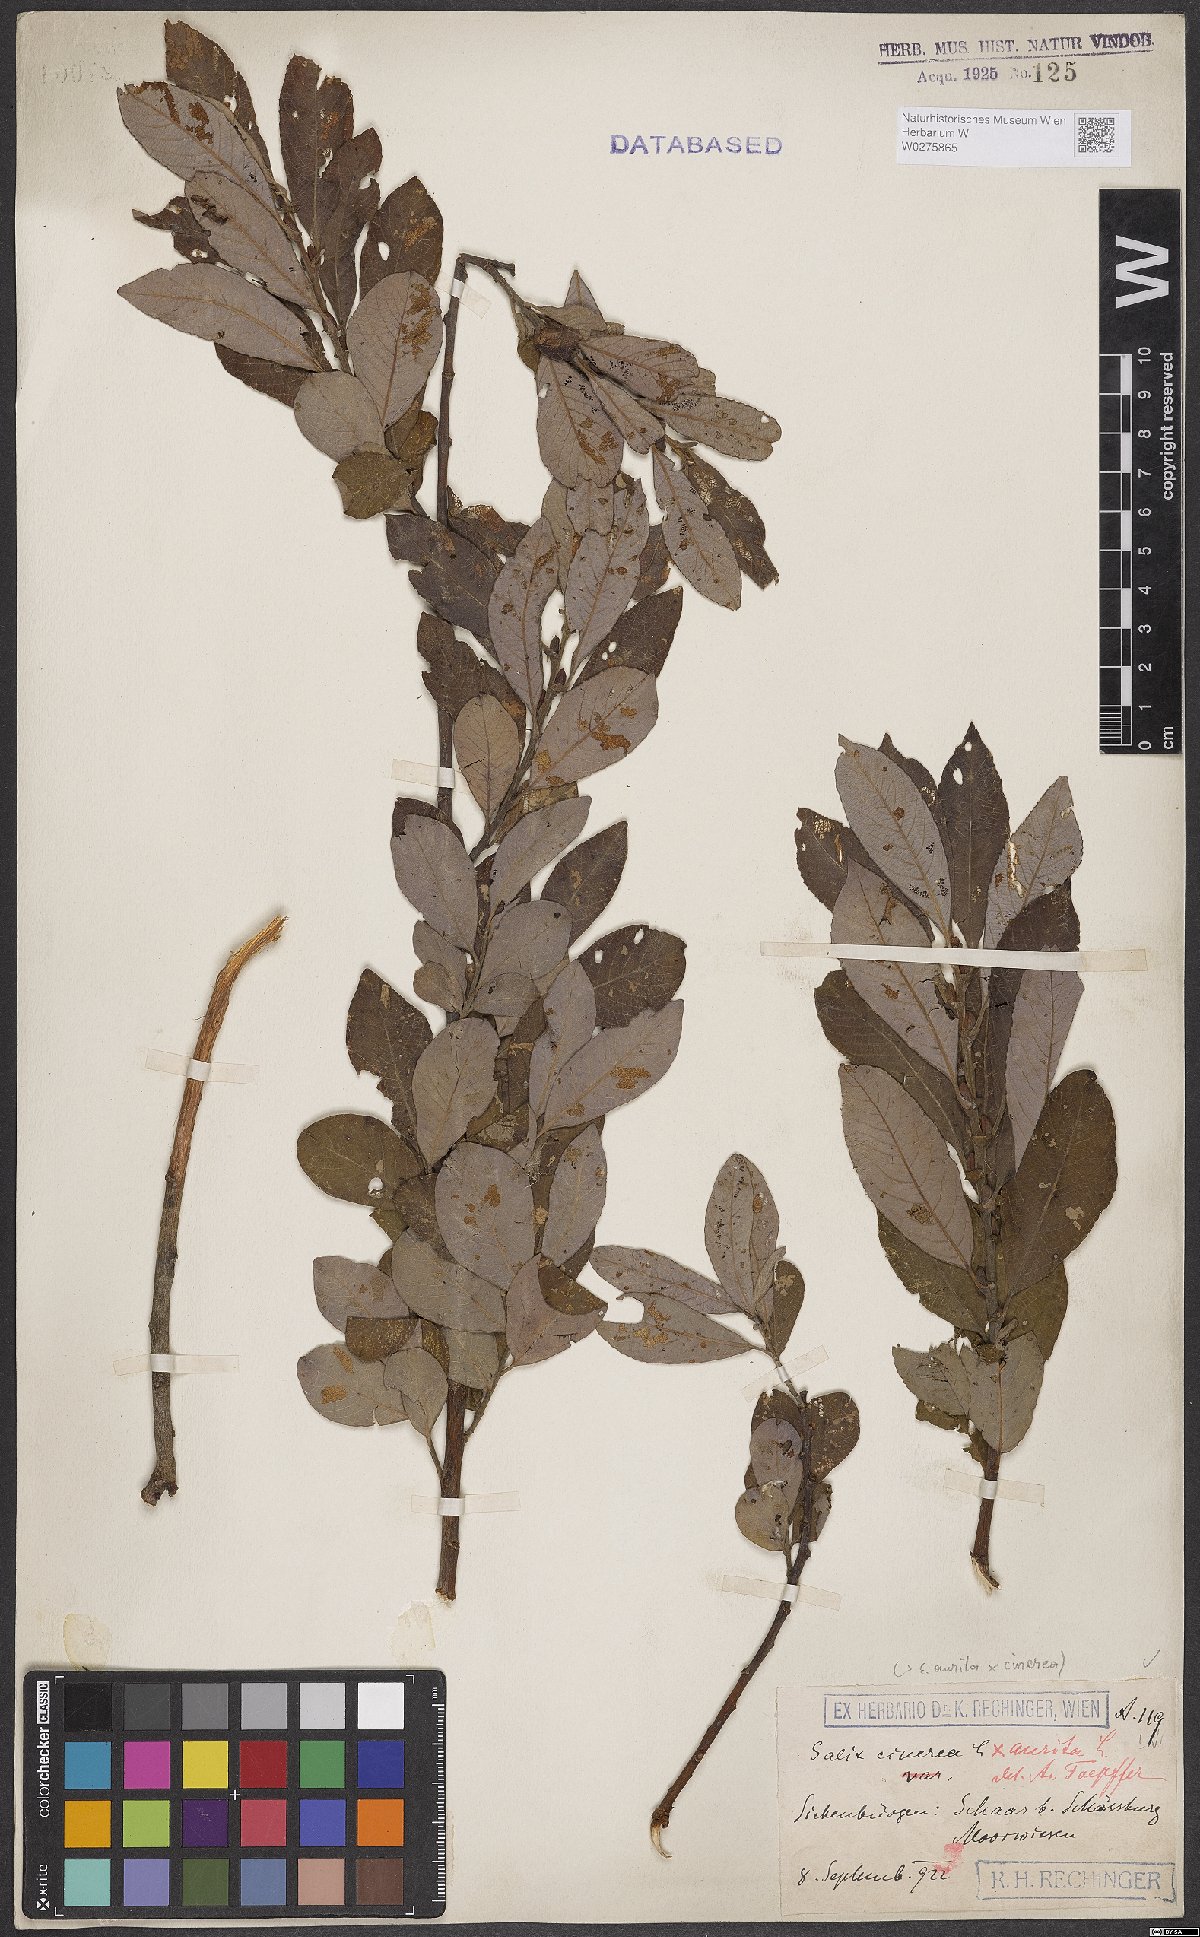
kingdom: Plantae
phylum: Tracheophyta
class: Magnoliopsida
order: Malpighiales
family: Salicaceae
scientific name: Salicaceae
